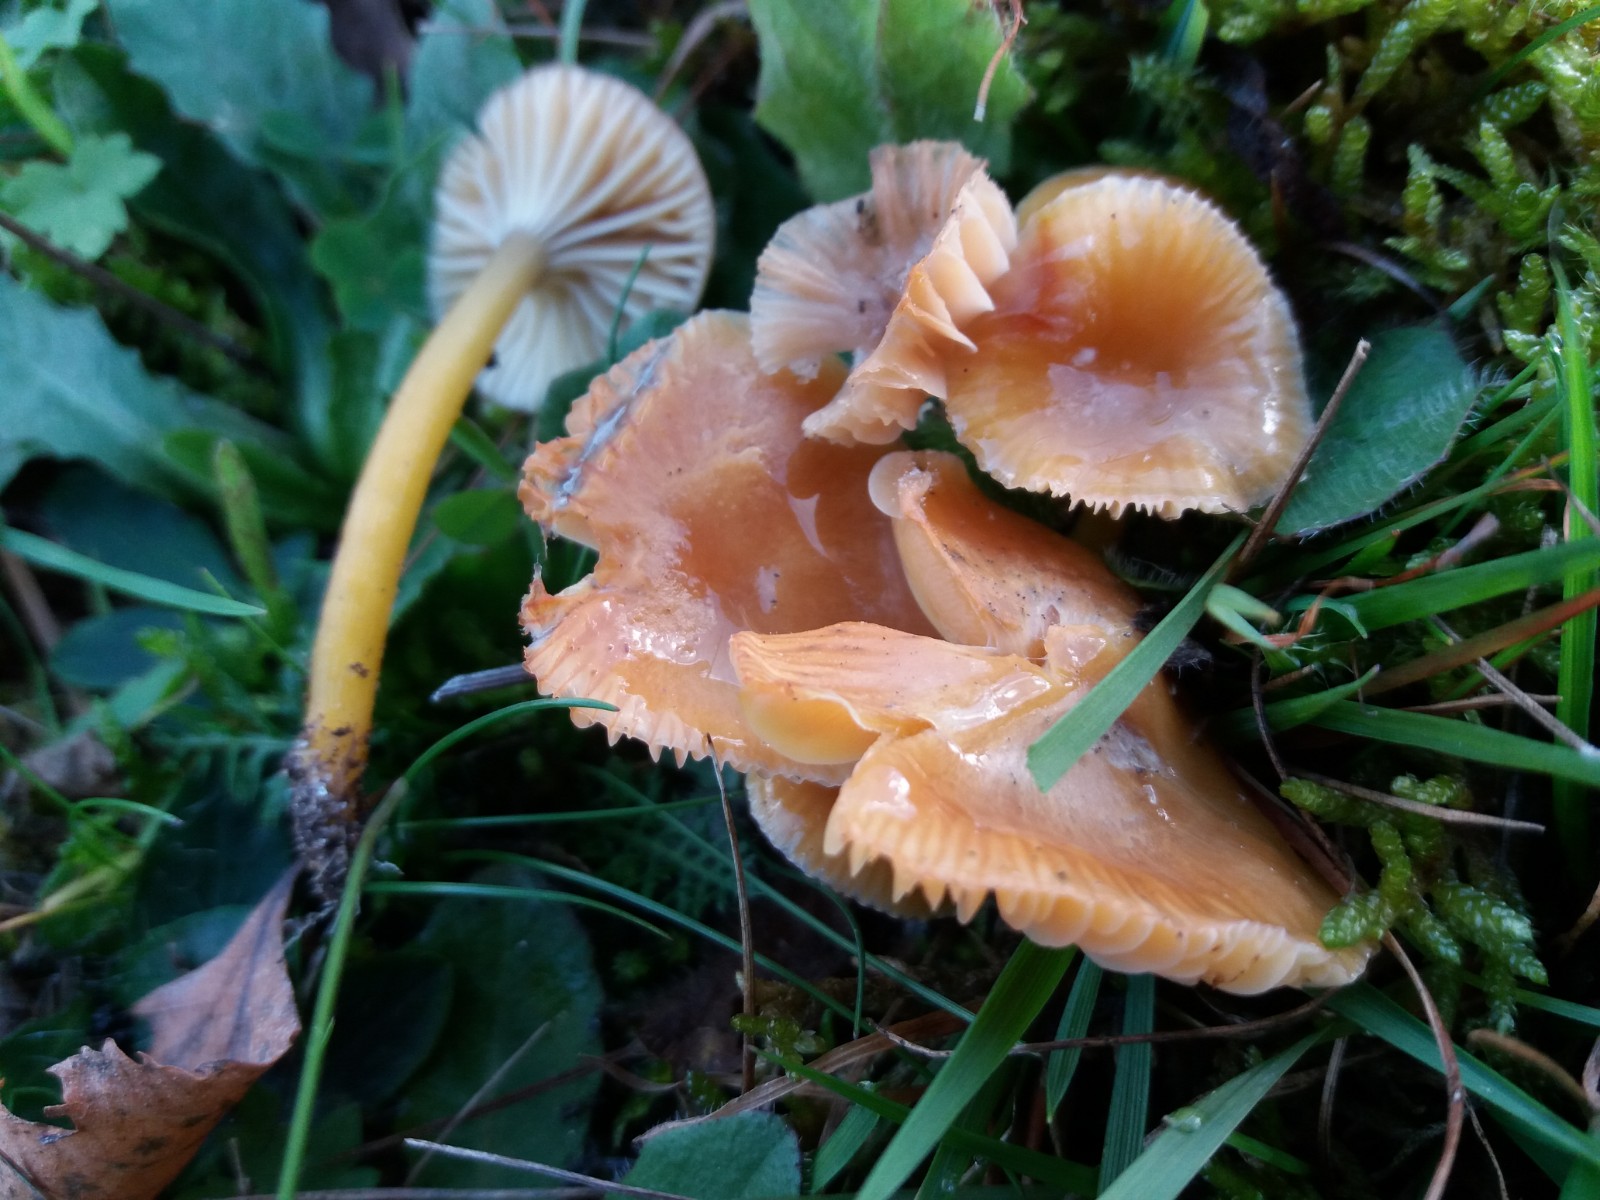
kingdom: Fungi
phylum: Basidiomycota
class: Agaricomycetes
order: Agaricales
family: Hygrophoraceae
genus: Gliophorus
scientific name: Gliophorus laetus
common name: brusk-vokshat
